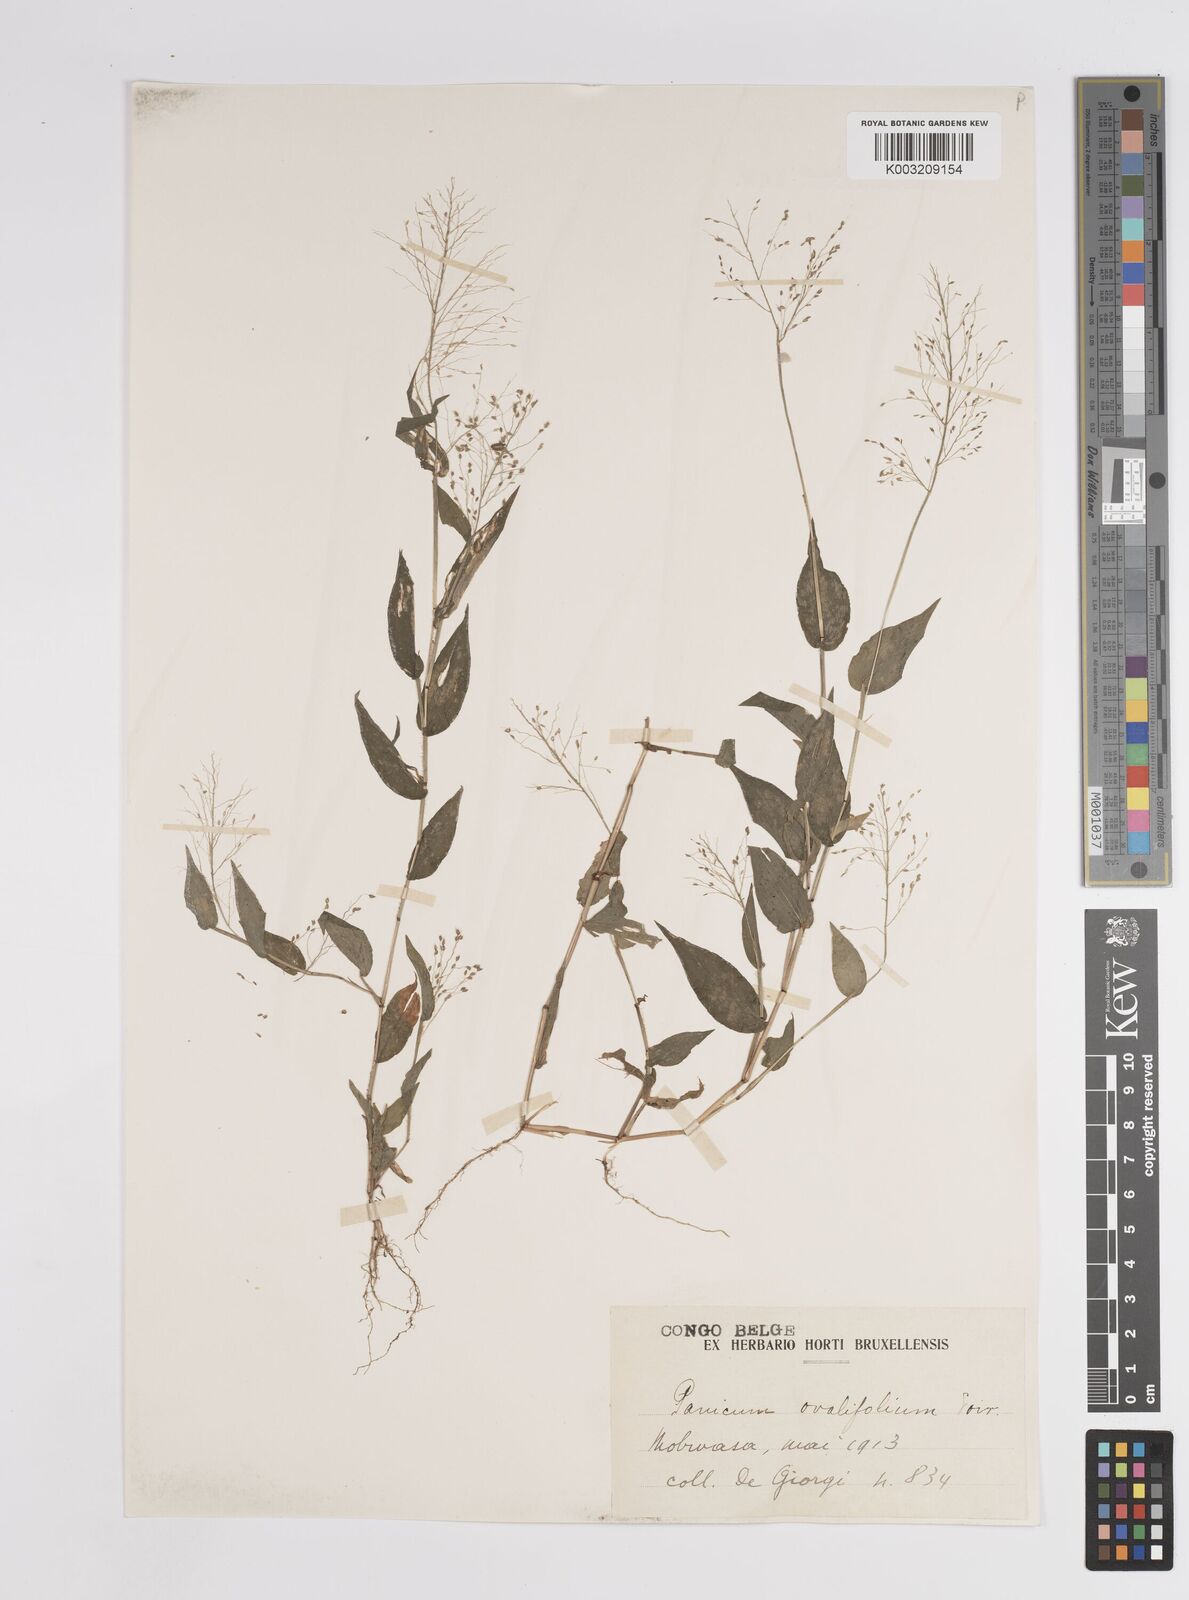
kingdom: Plantae
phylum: Tracheophyta
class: Liliopsida
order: Poales
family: Poaceae
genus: Panicum
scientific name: Panicum brevifolium
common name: Shortleaf panic grass
